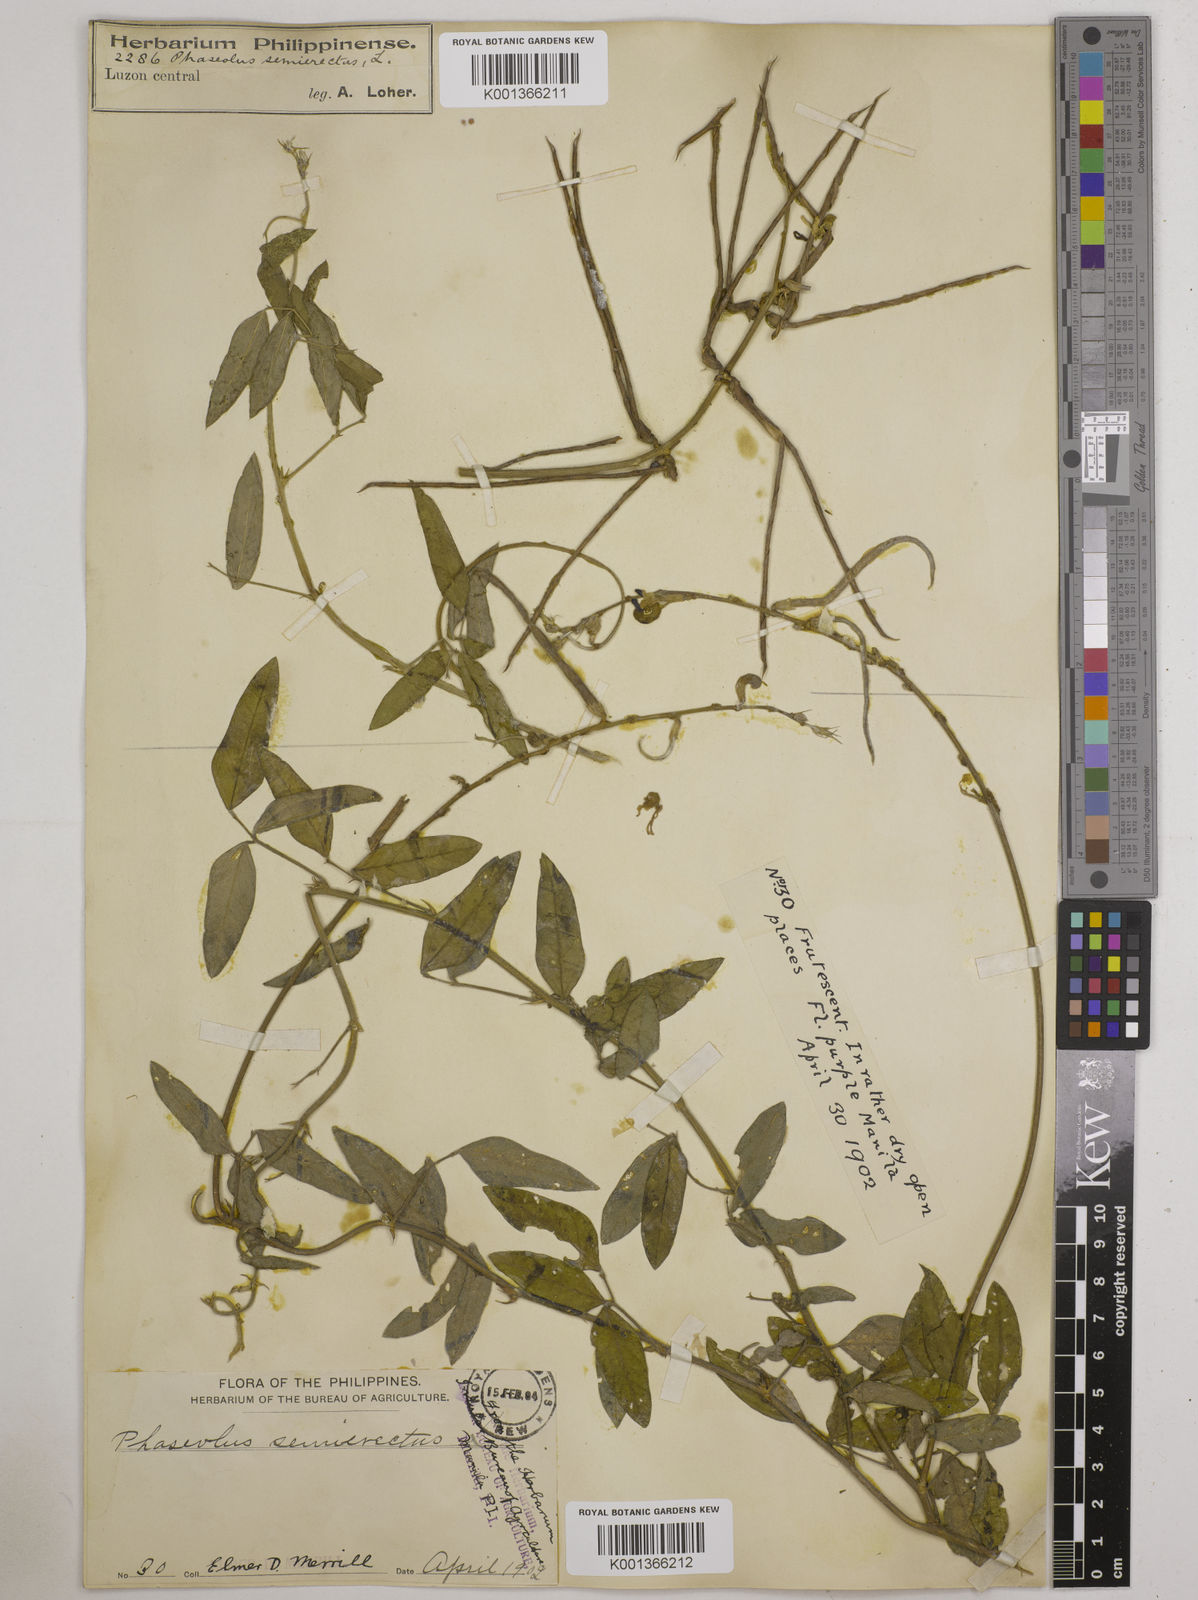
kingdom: Plantae
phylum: Tracheophyta
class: Magnoliopsida
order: Fabales
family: Fabaceae
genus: Macroptilium
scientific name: Macroptilium lathyroides
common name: Wild bushbean
